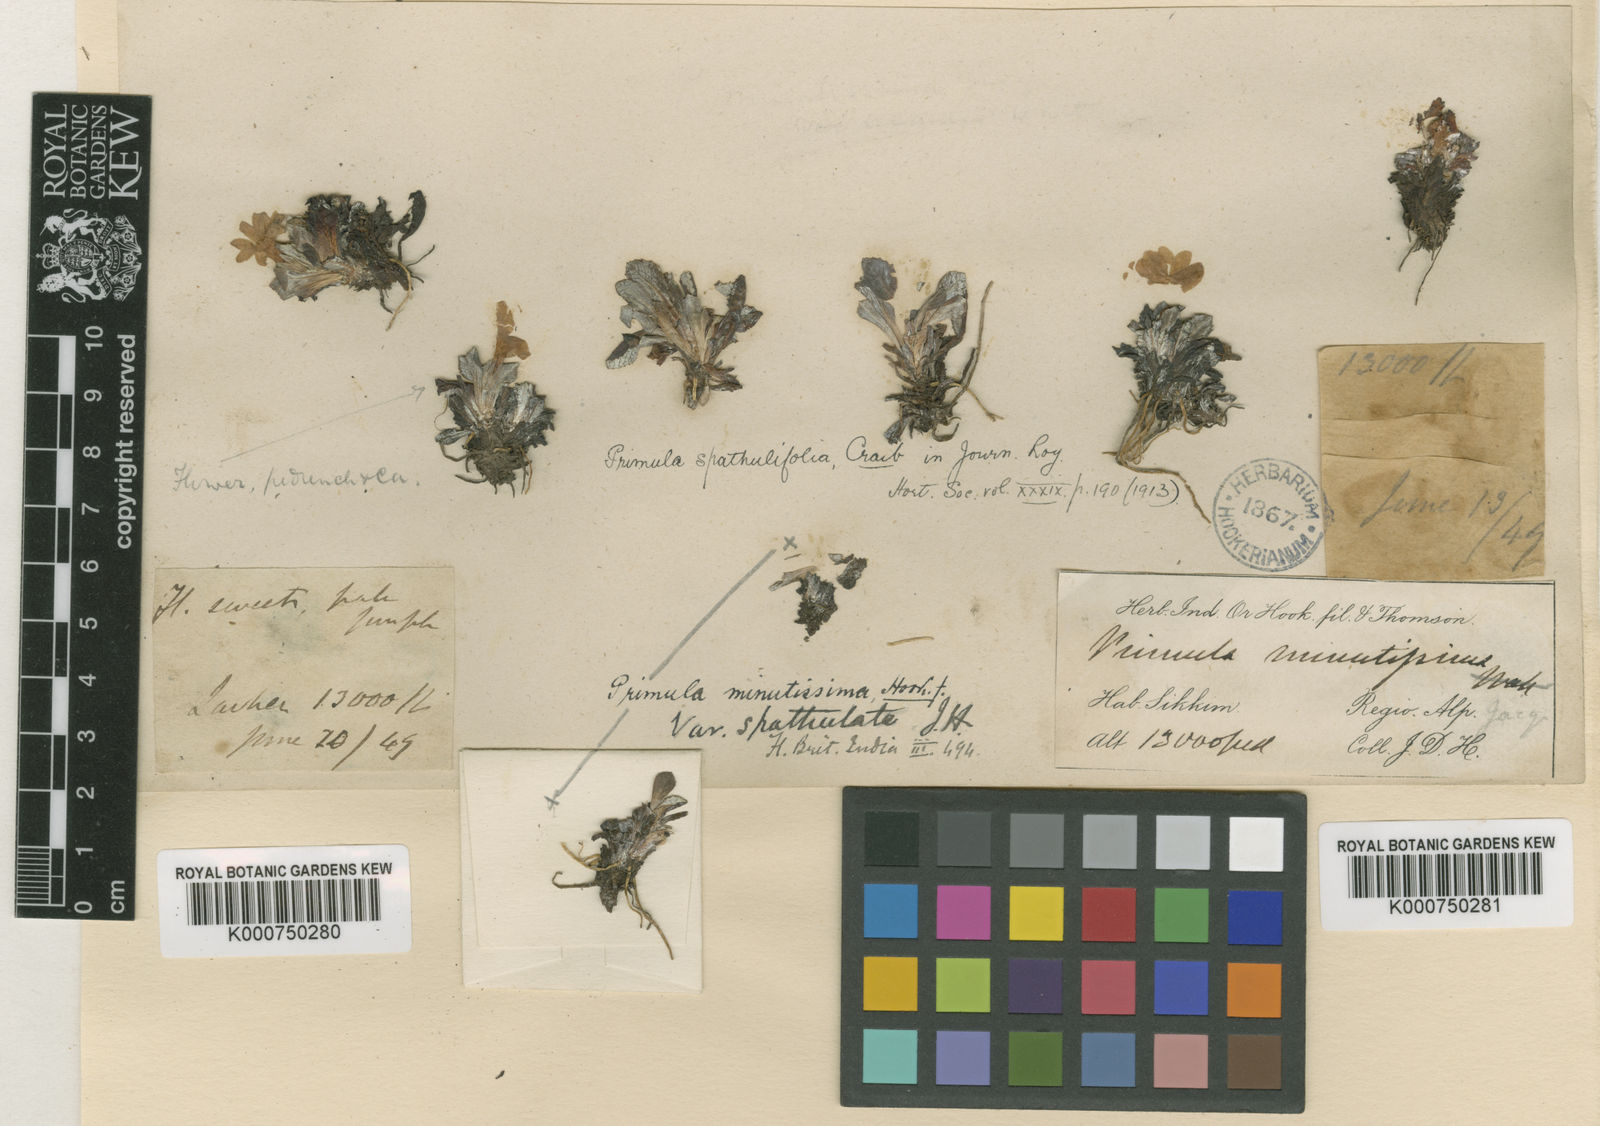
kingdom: Plantae
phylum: Tracheophyta
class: Magnoliopsida
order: Ericales
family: Primulaceae
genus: Primula
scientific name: Primula spathulifolia
